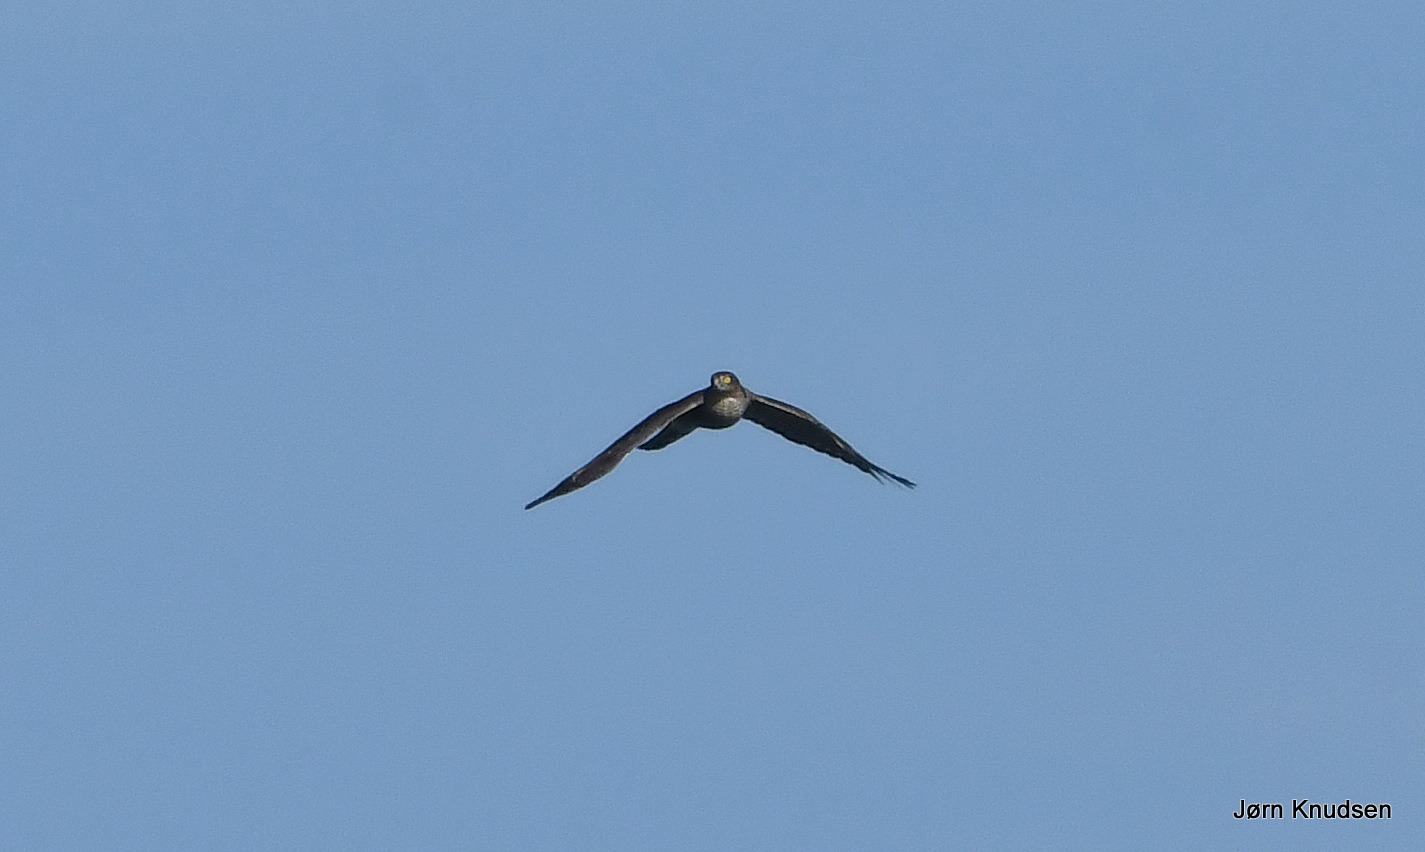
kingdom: Animalia
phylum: Chordata
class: Aves
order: Accipitriformes
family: Accipitridae
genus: Accipiter
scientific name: Accipiter nisus
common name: Spurvehøg
